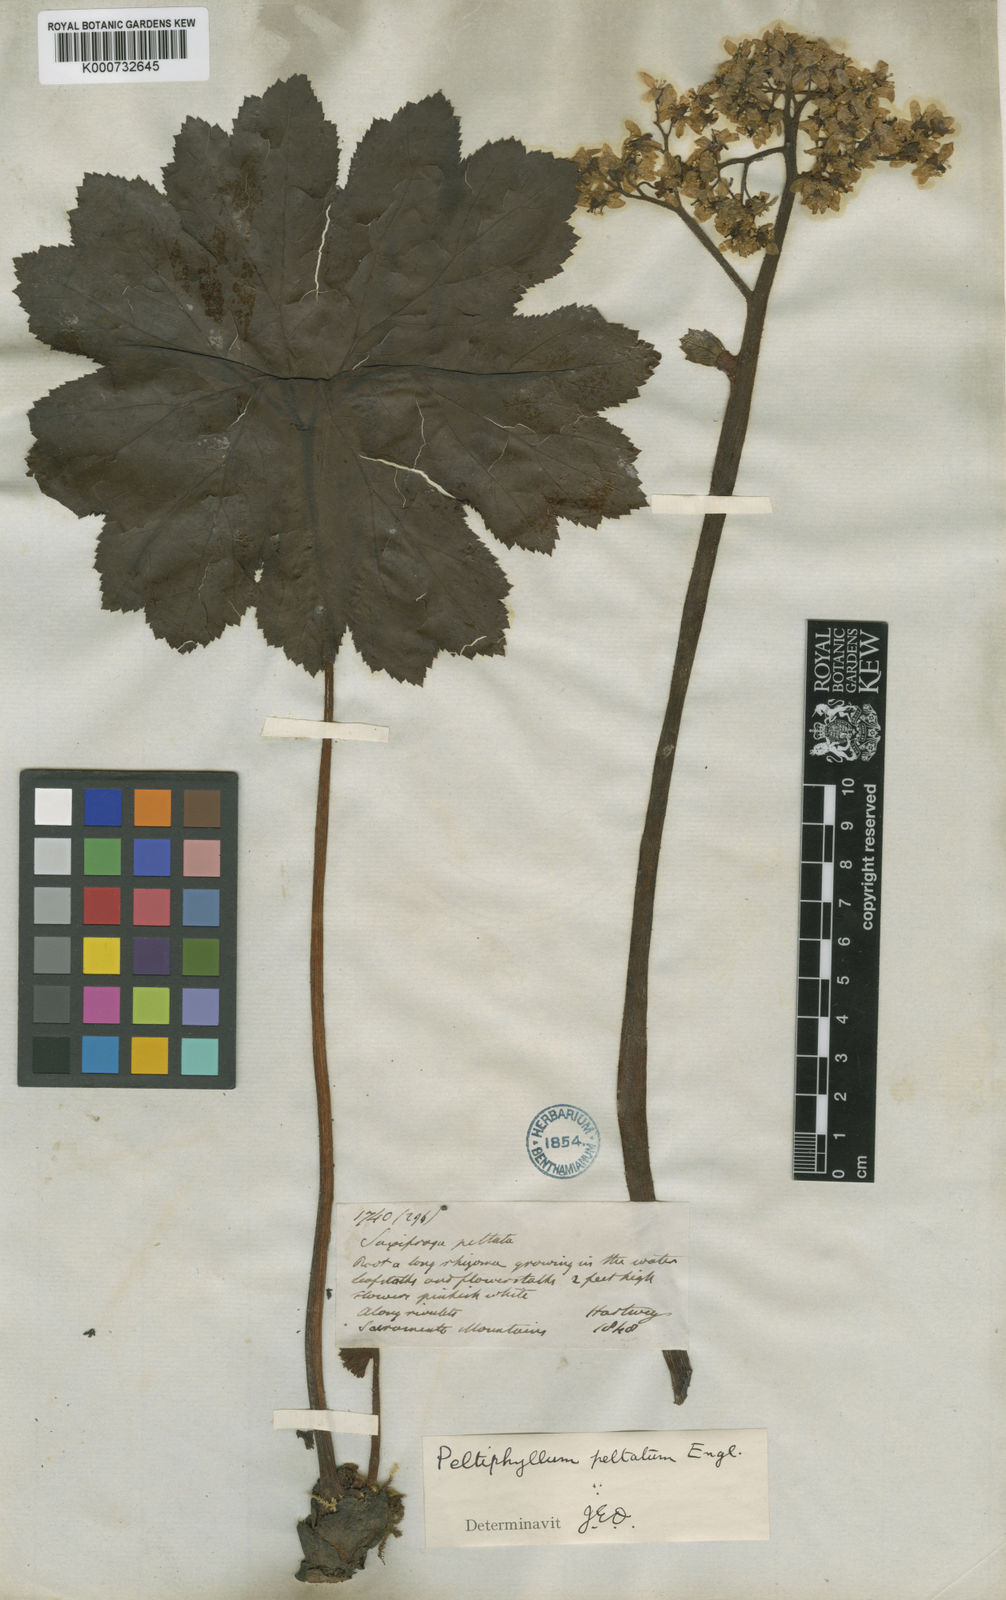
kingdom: Plantae
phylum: Tracheophyta
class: Magnoliopsida
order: Saxifragales
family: Saxifragaceae
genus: Darmera
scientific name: Darmera peltata
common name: Indian-rhubarb
